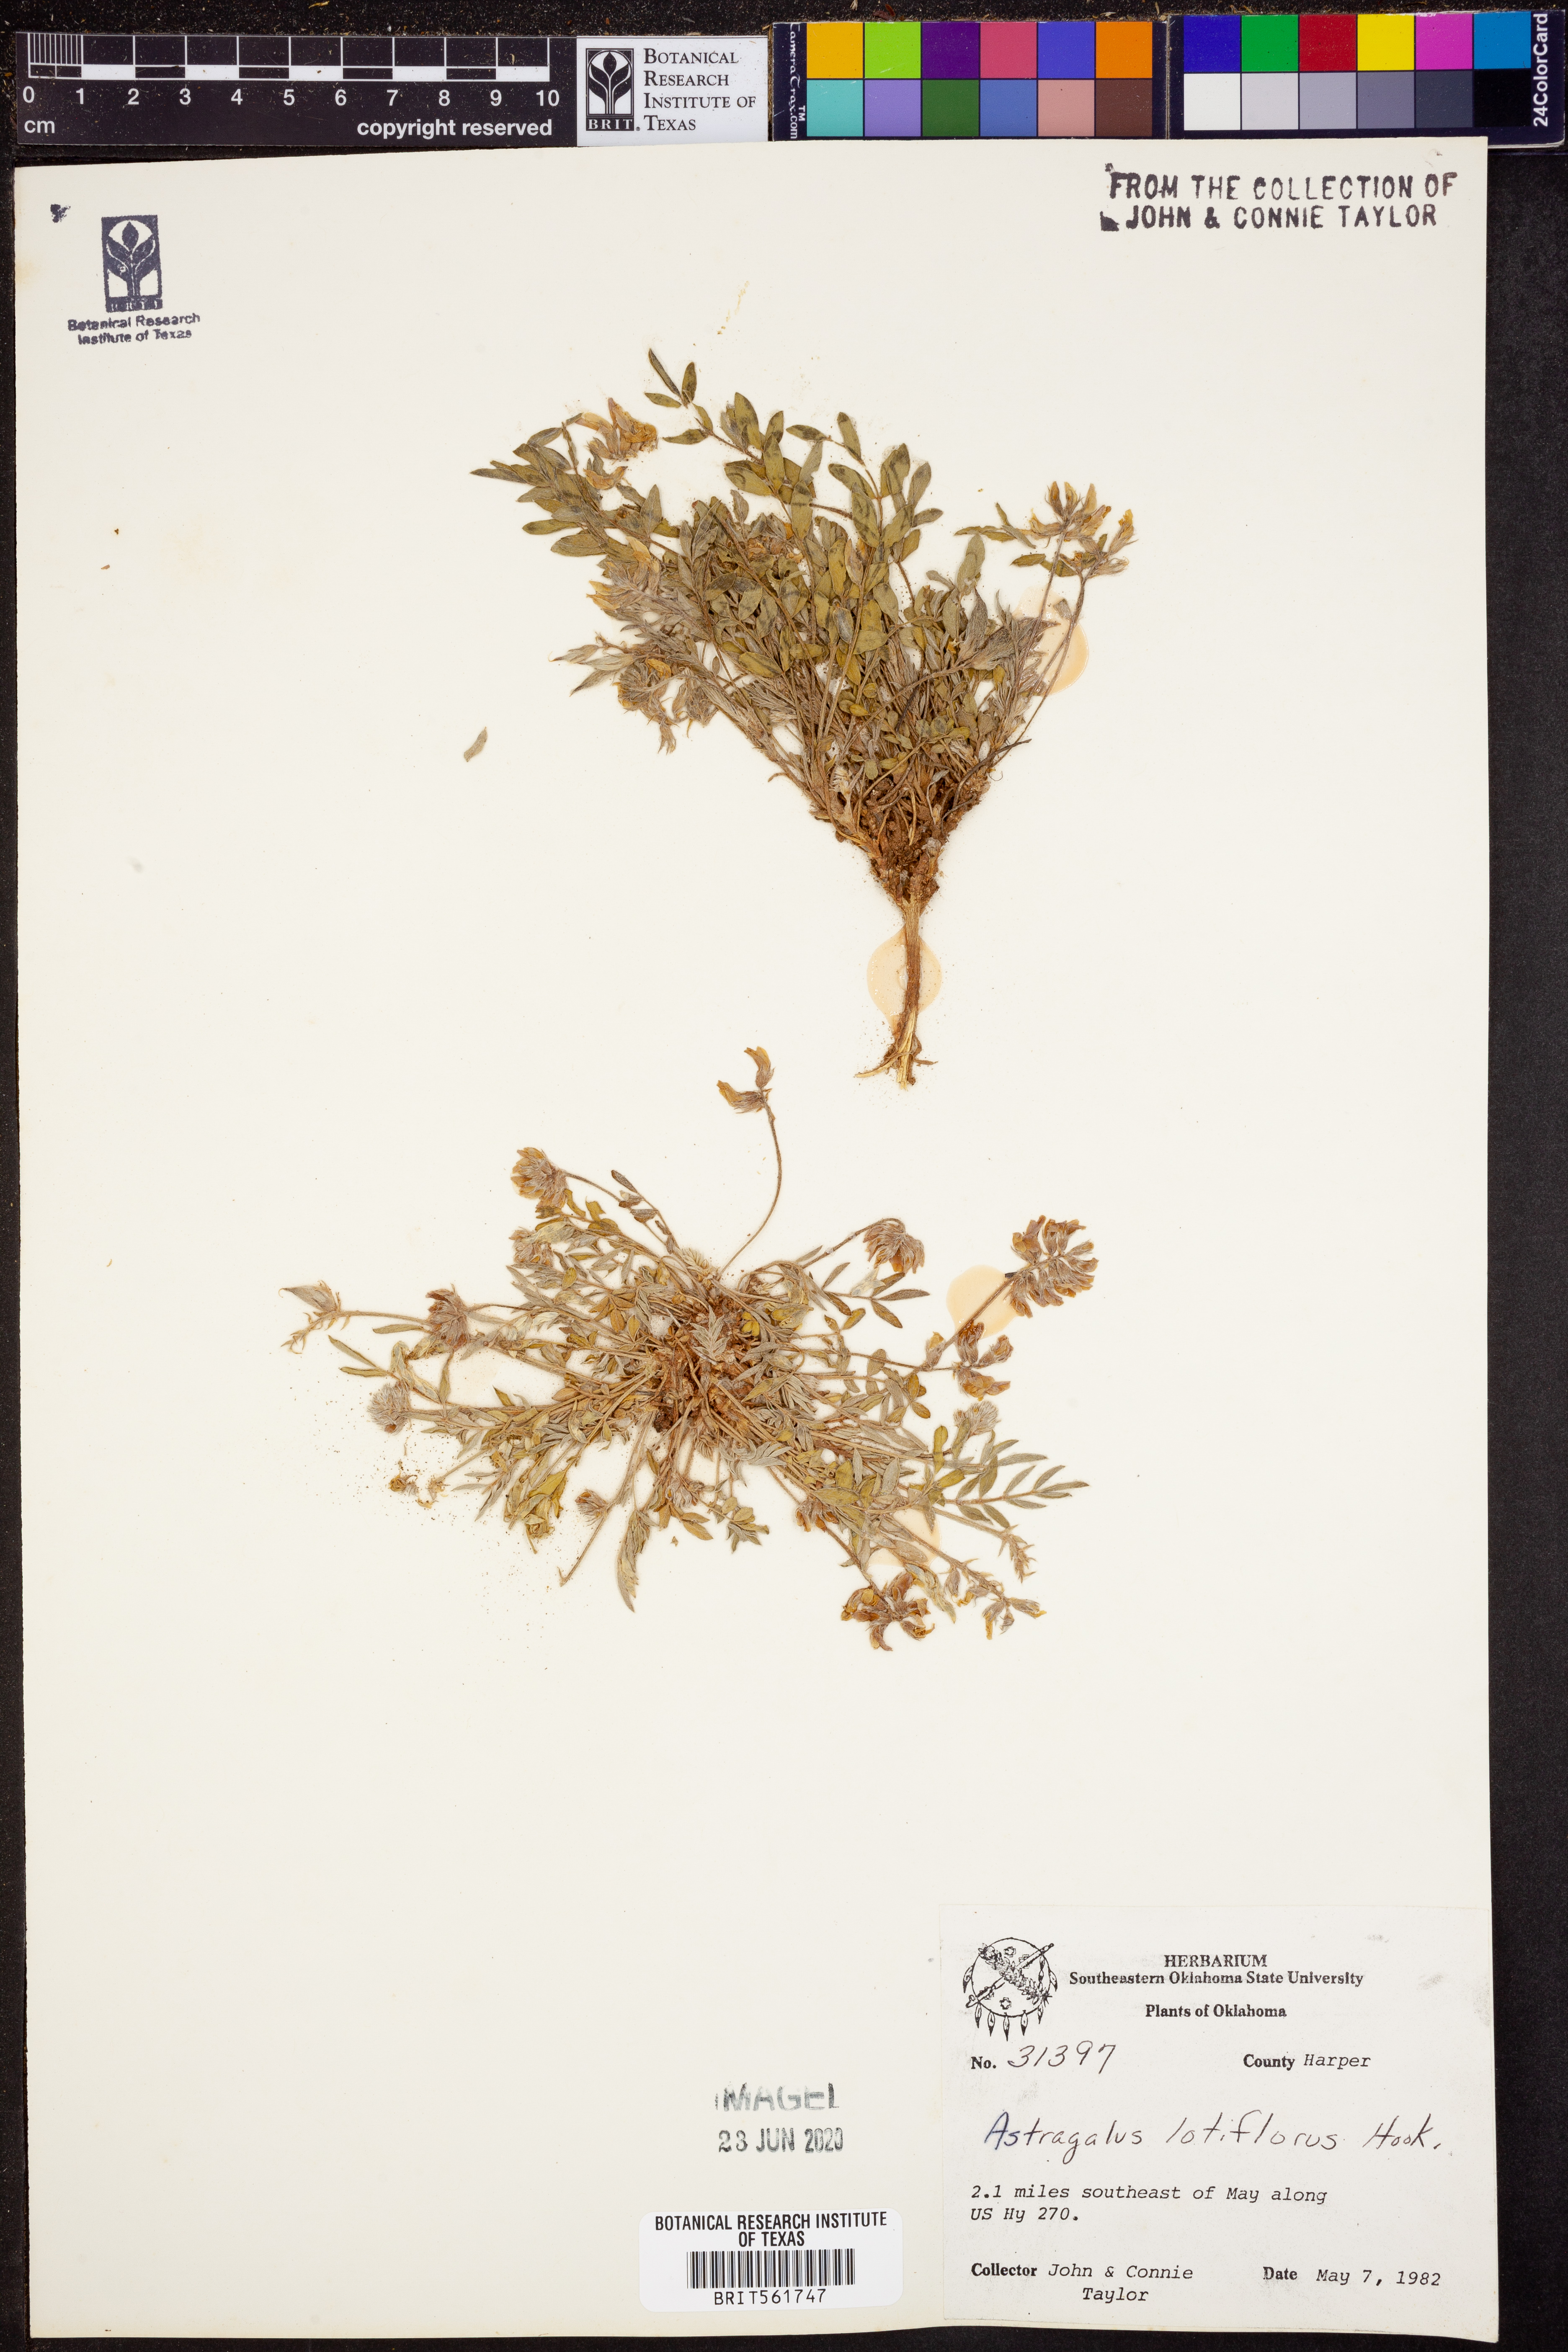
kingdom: Plantae
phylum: Tracheophyta
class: Magnoliopsida
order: Fabales
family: Fabaceae
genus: Astragalus
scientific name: Astragalus lotiflorus
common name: Lotus milk-vetch
